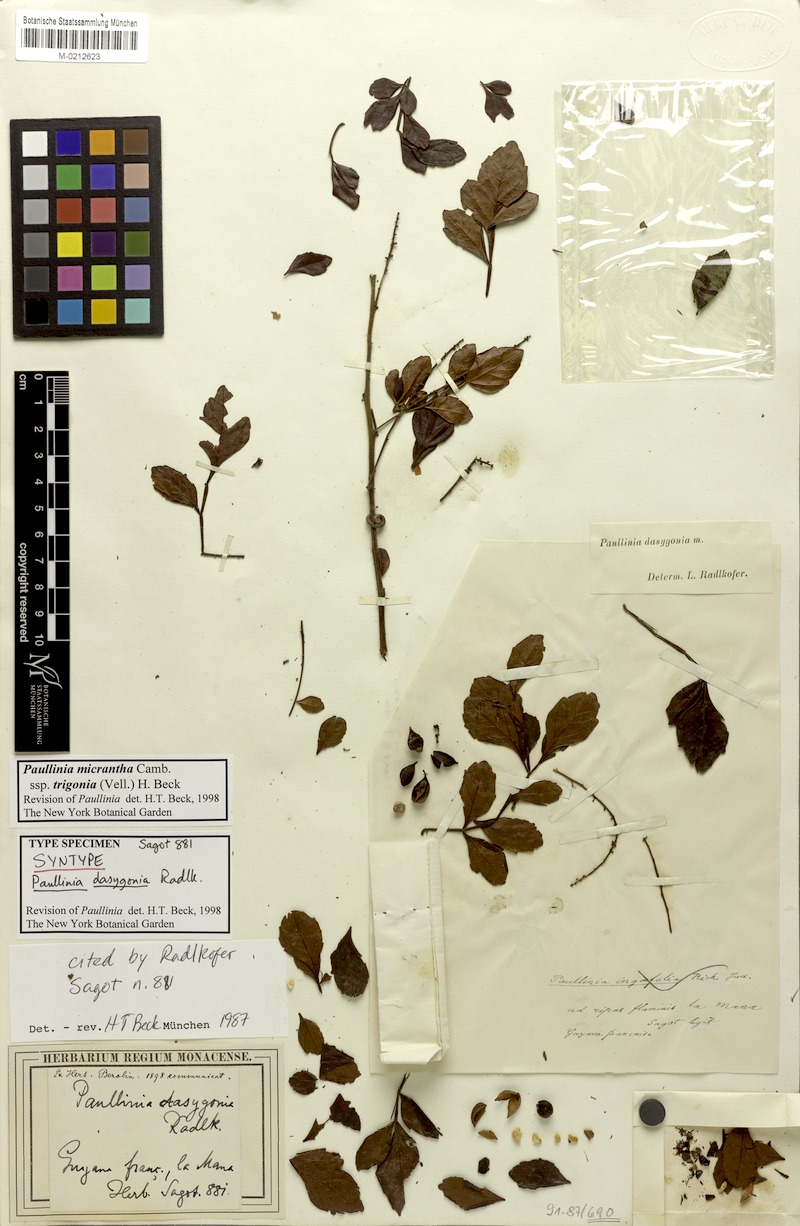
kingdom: Plantae
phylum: Tracheophyta
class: Magnoliopsida
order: Sapindales
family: Sapindaceae
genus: Paullinia
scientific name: Paullinia micrantha
